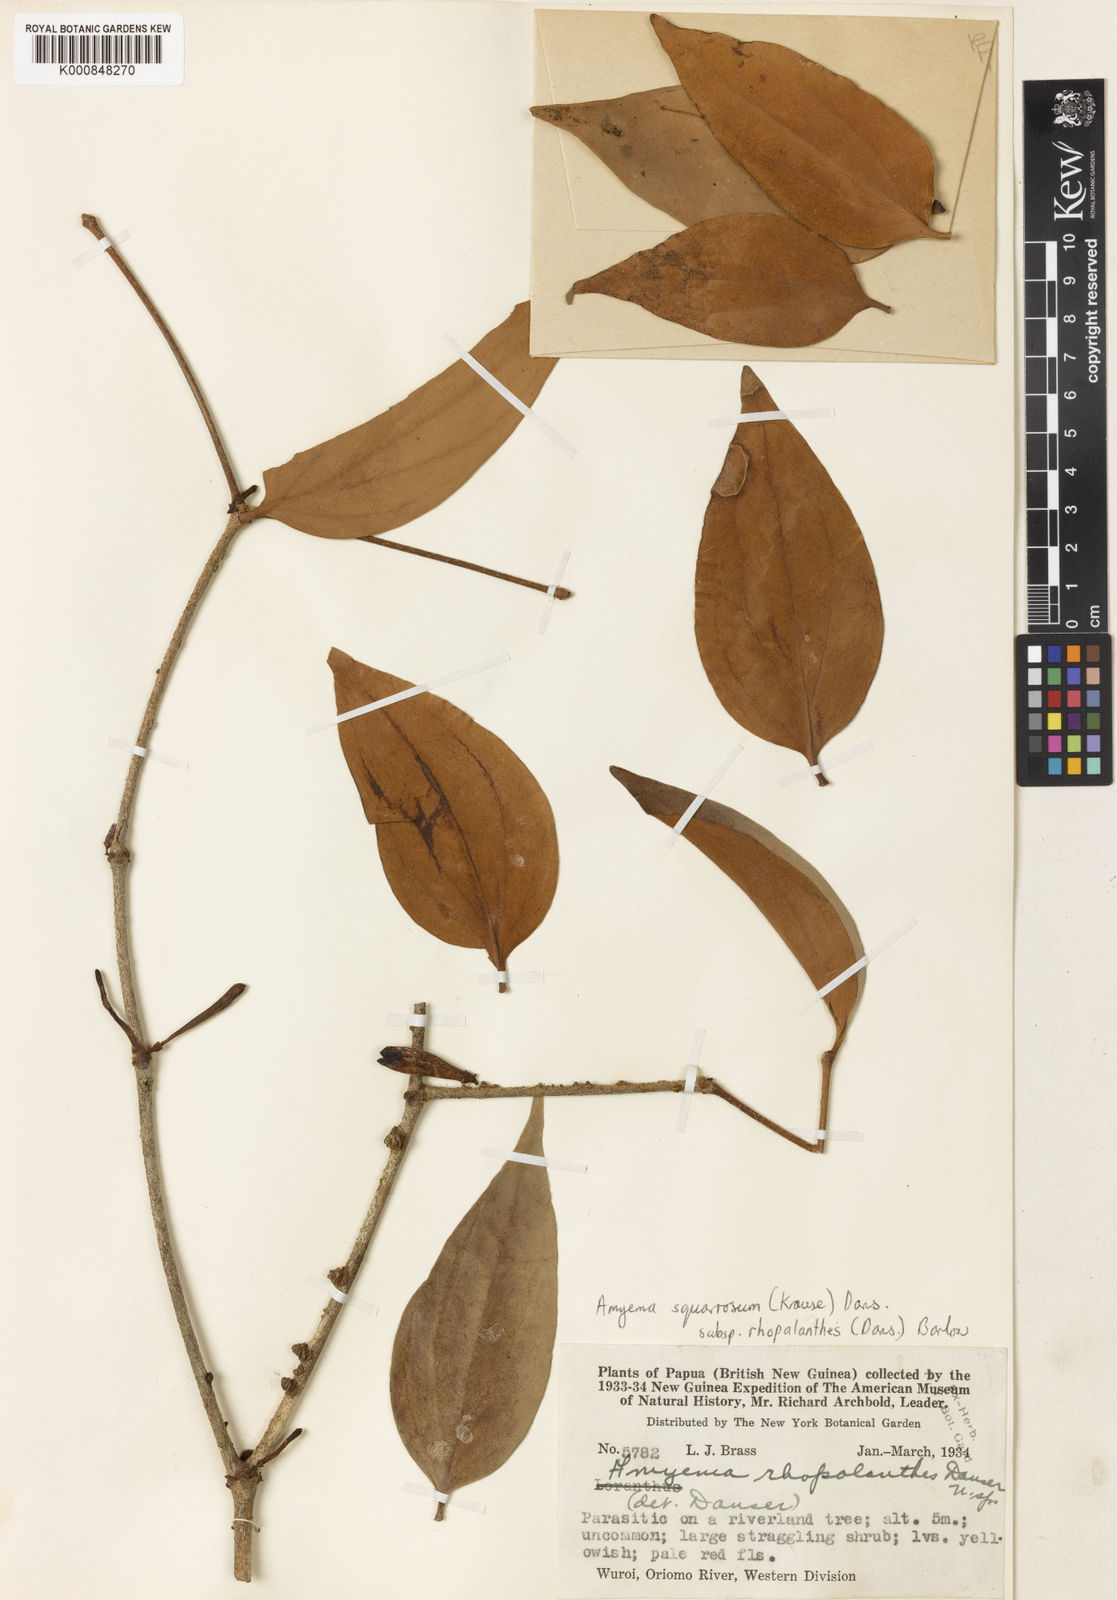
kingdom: Plantae
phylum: Tracheophyta
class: Magnoliopsida
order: Santalales
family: Loranthaceae
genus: Amyema
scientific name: Amyema squarrosa
